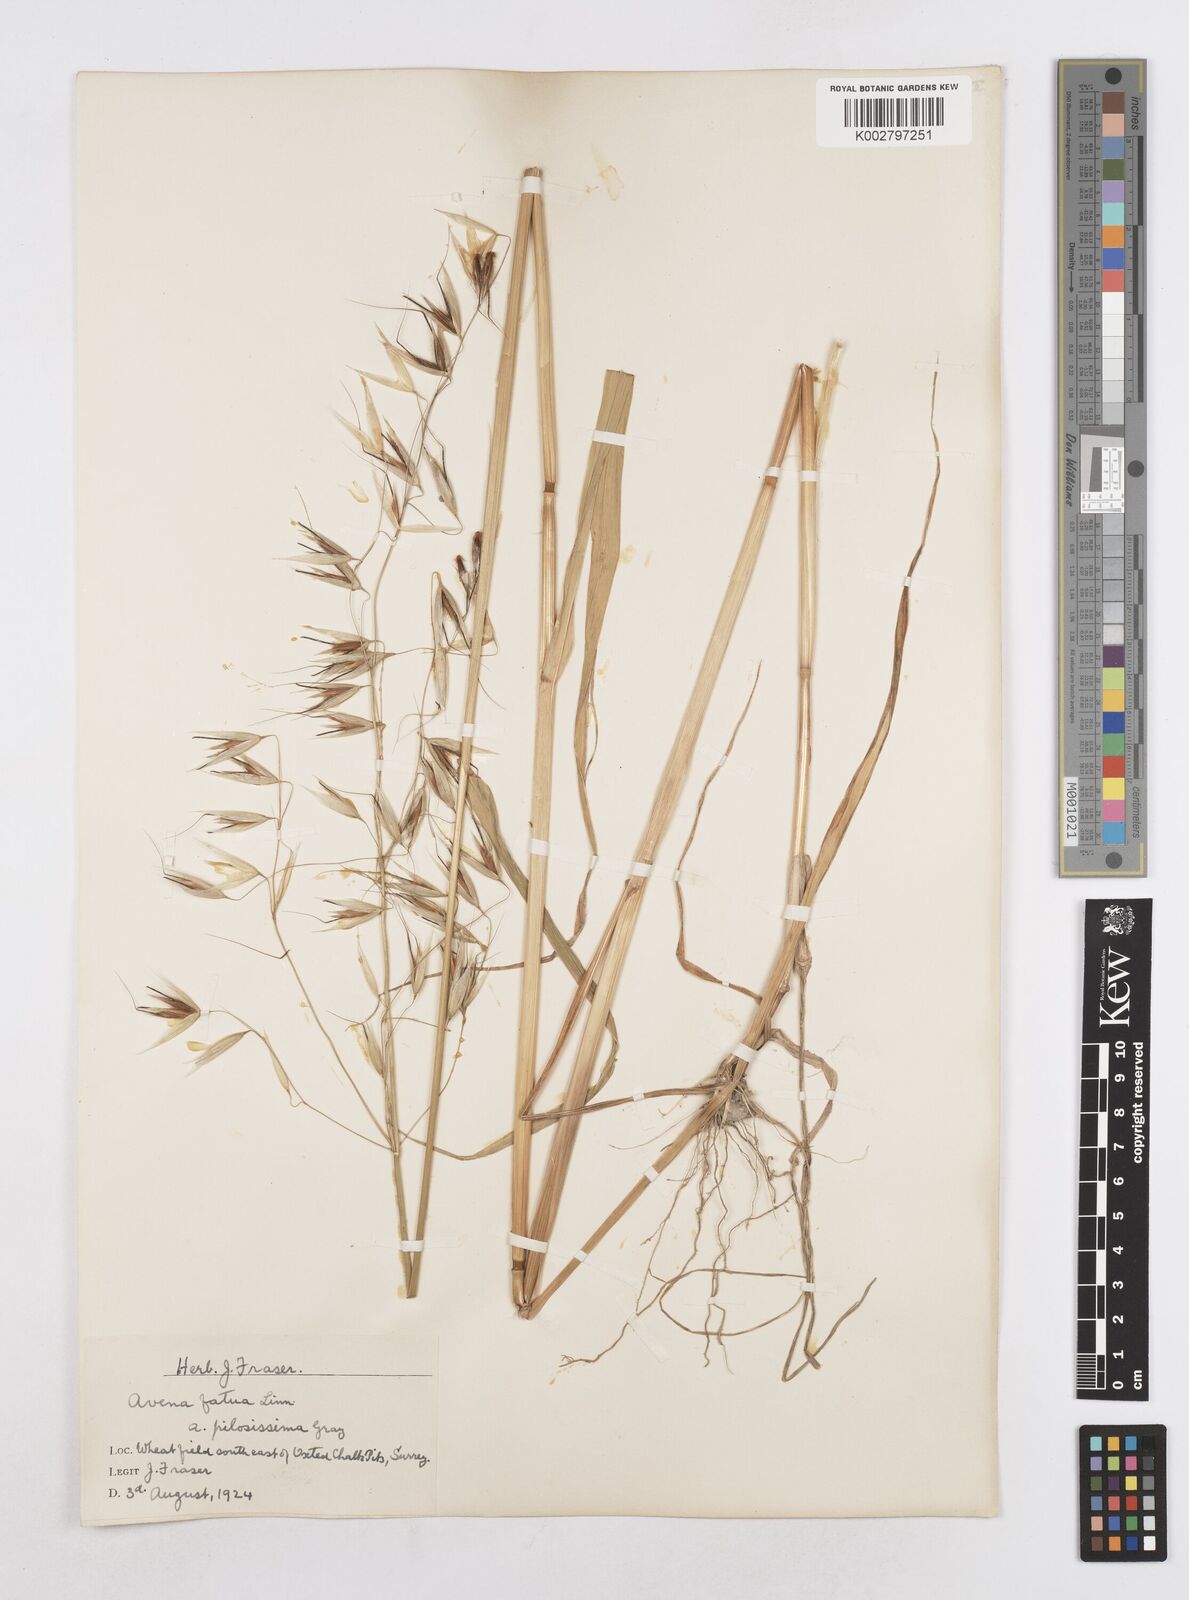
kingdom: Plantae
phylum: Tracheophyta
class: Liliopsida
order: Poales
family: Poaceae
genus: Avena
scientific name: Avena fatua
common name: Wild oat
